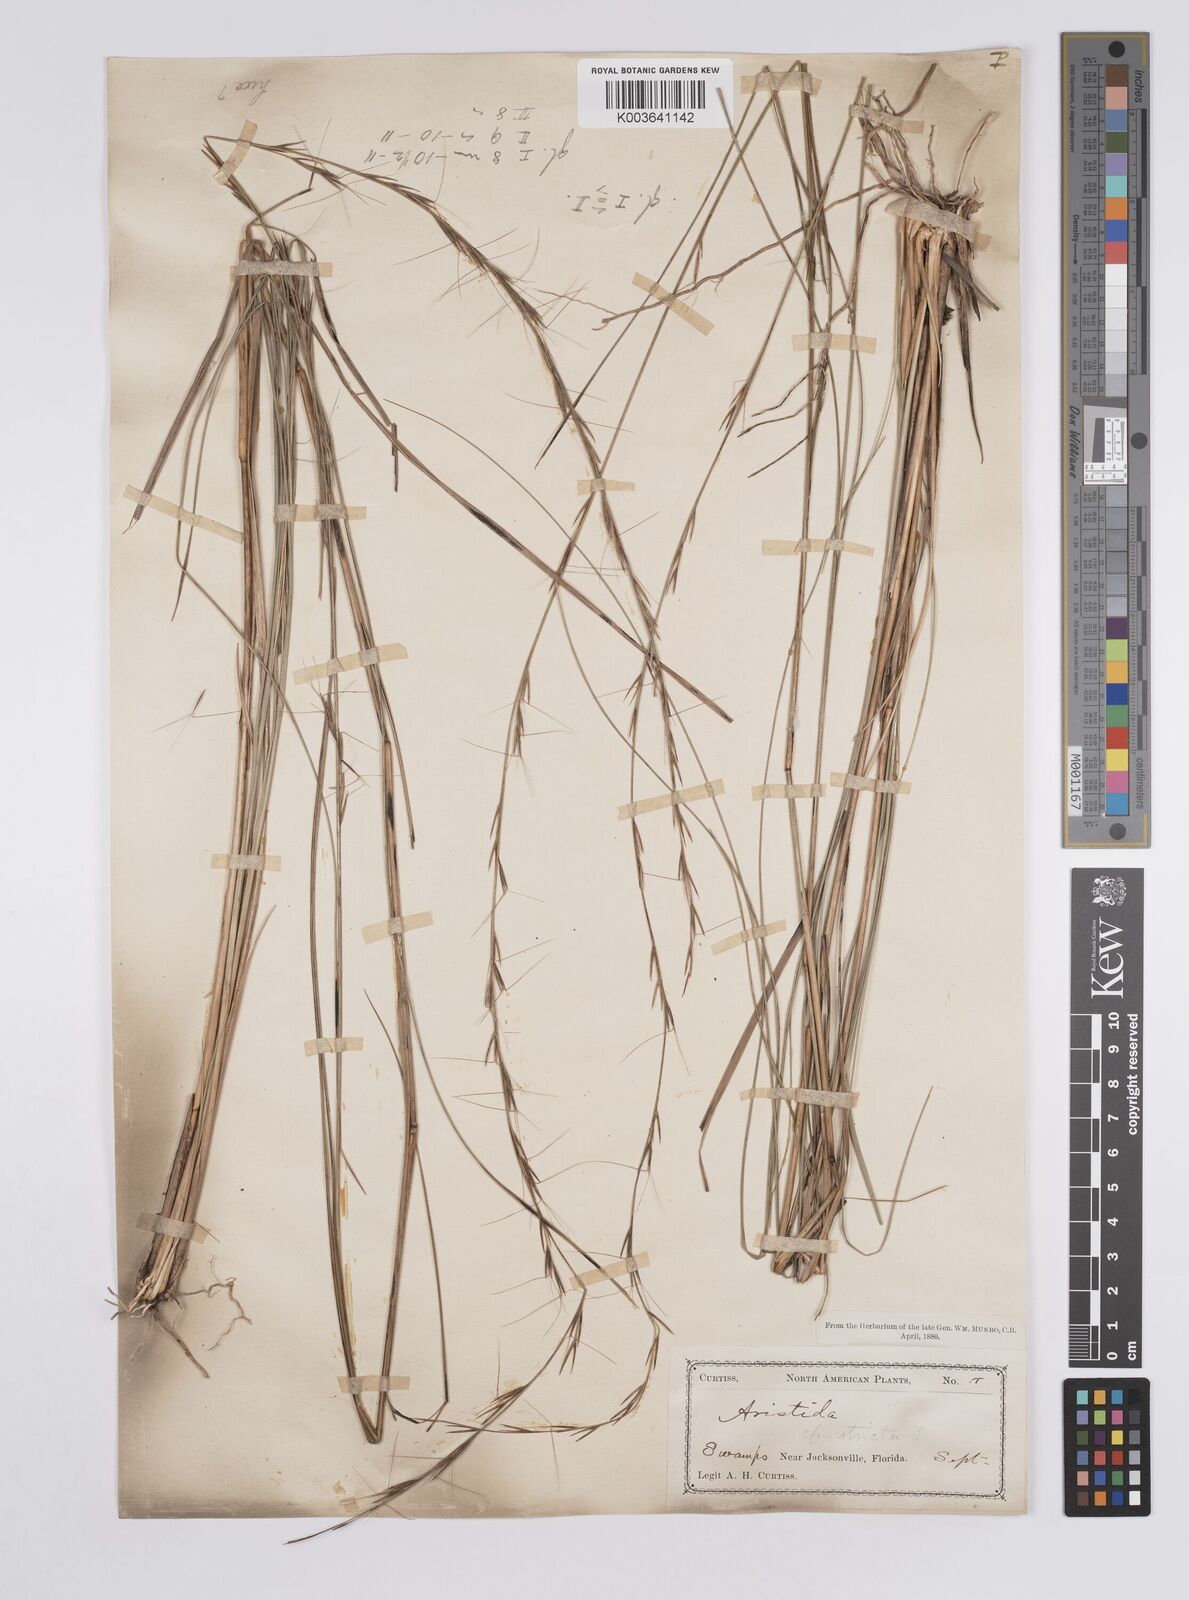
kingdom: Plantae
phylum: Tracheophyta
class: Liliopsida
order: Poales
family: Poaceae
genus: Aristida
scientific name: Aristida palustris
